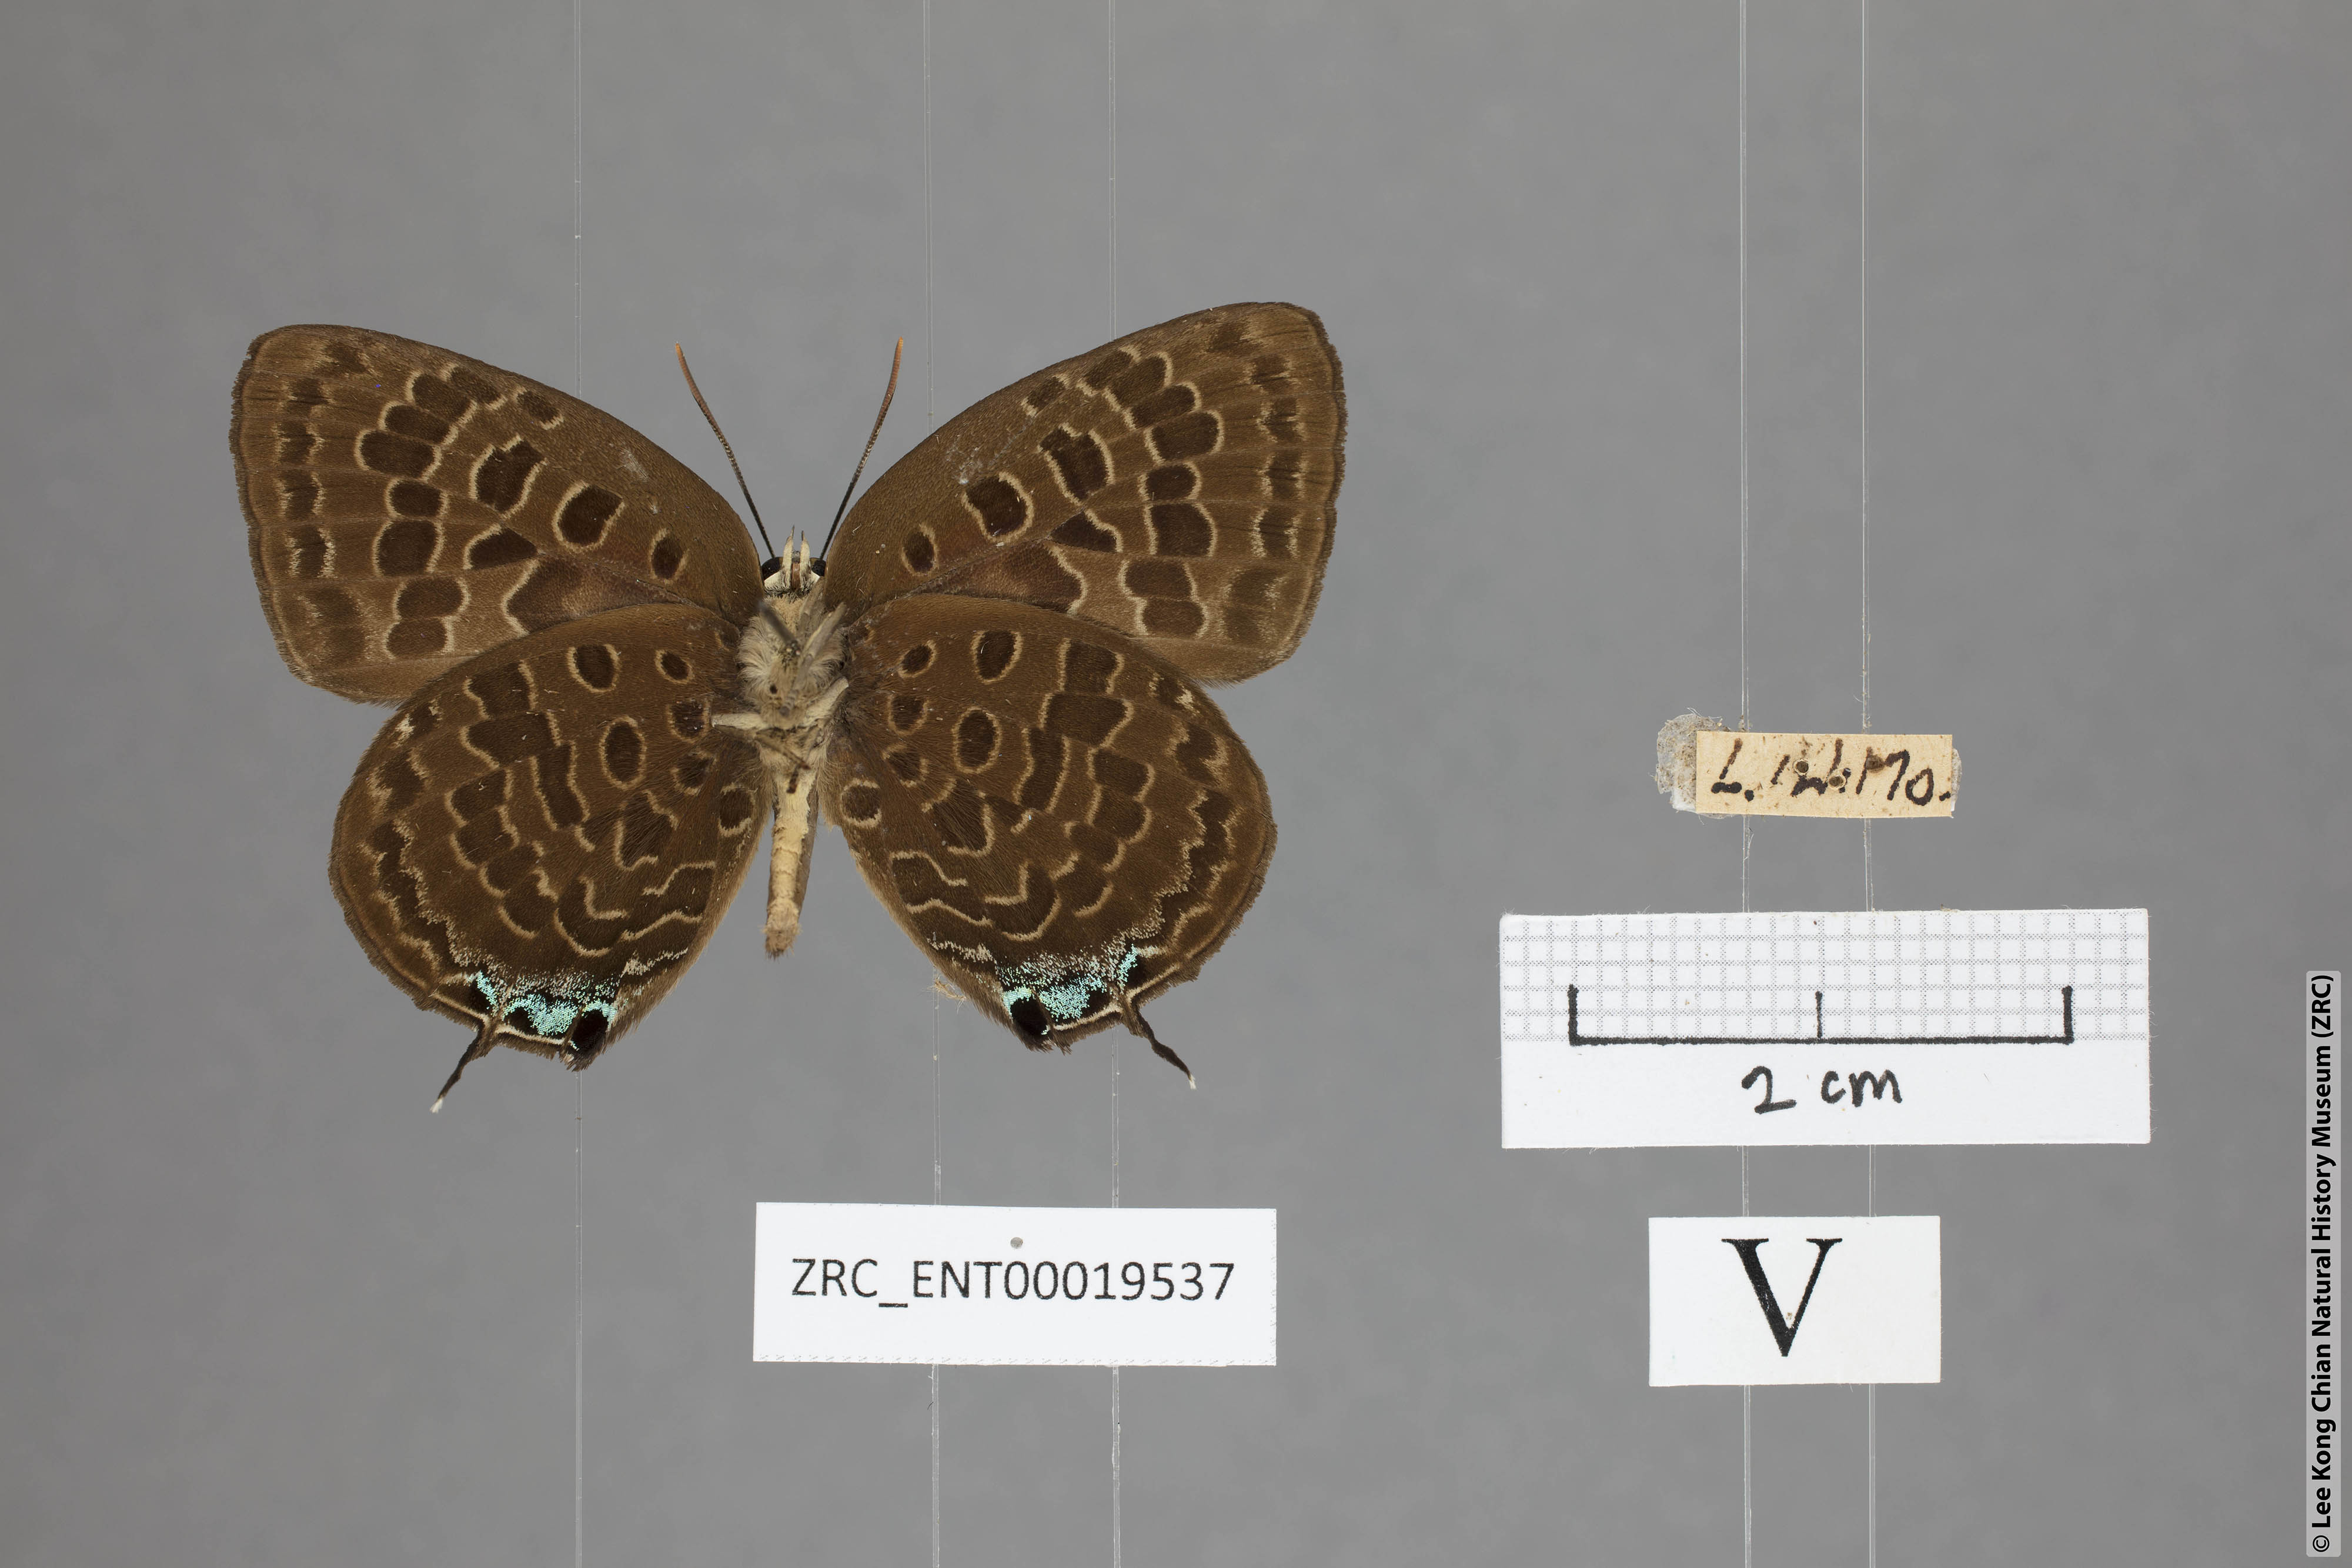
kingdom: Animalia
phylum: Arthropoda
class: Insecta
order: Lepidoptera
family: Lycaenidae
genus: Arhopala
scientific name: Arhopala horsfieldi
